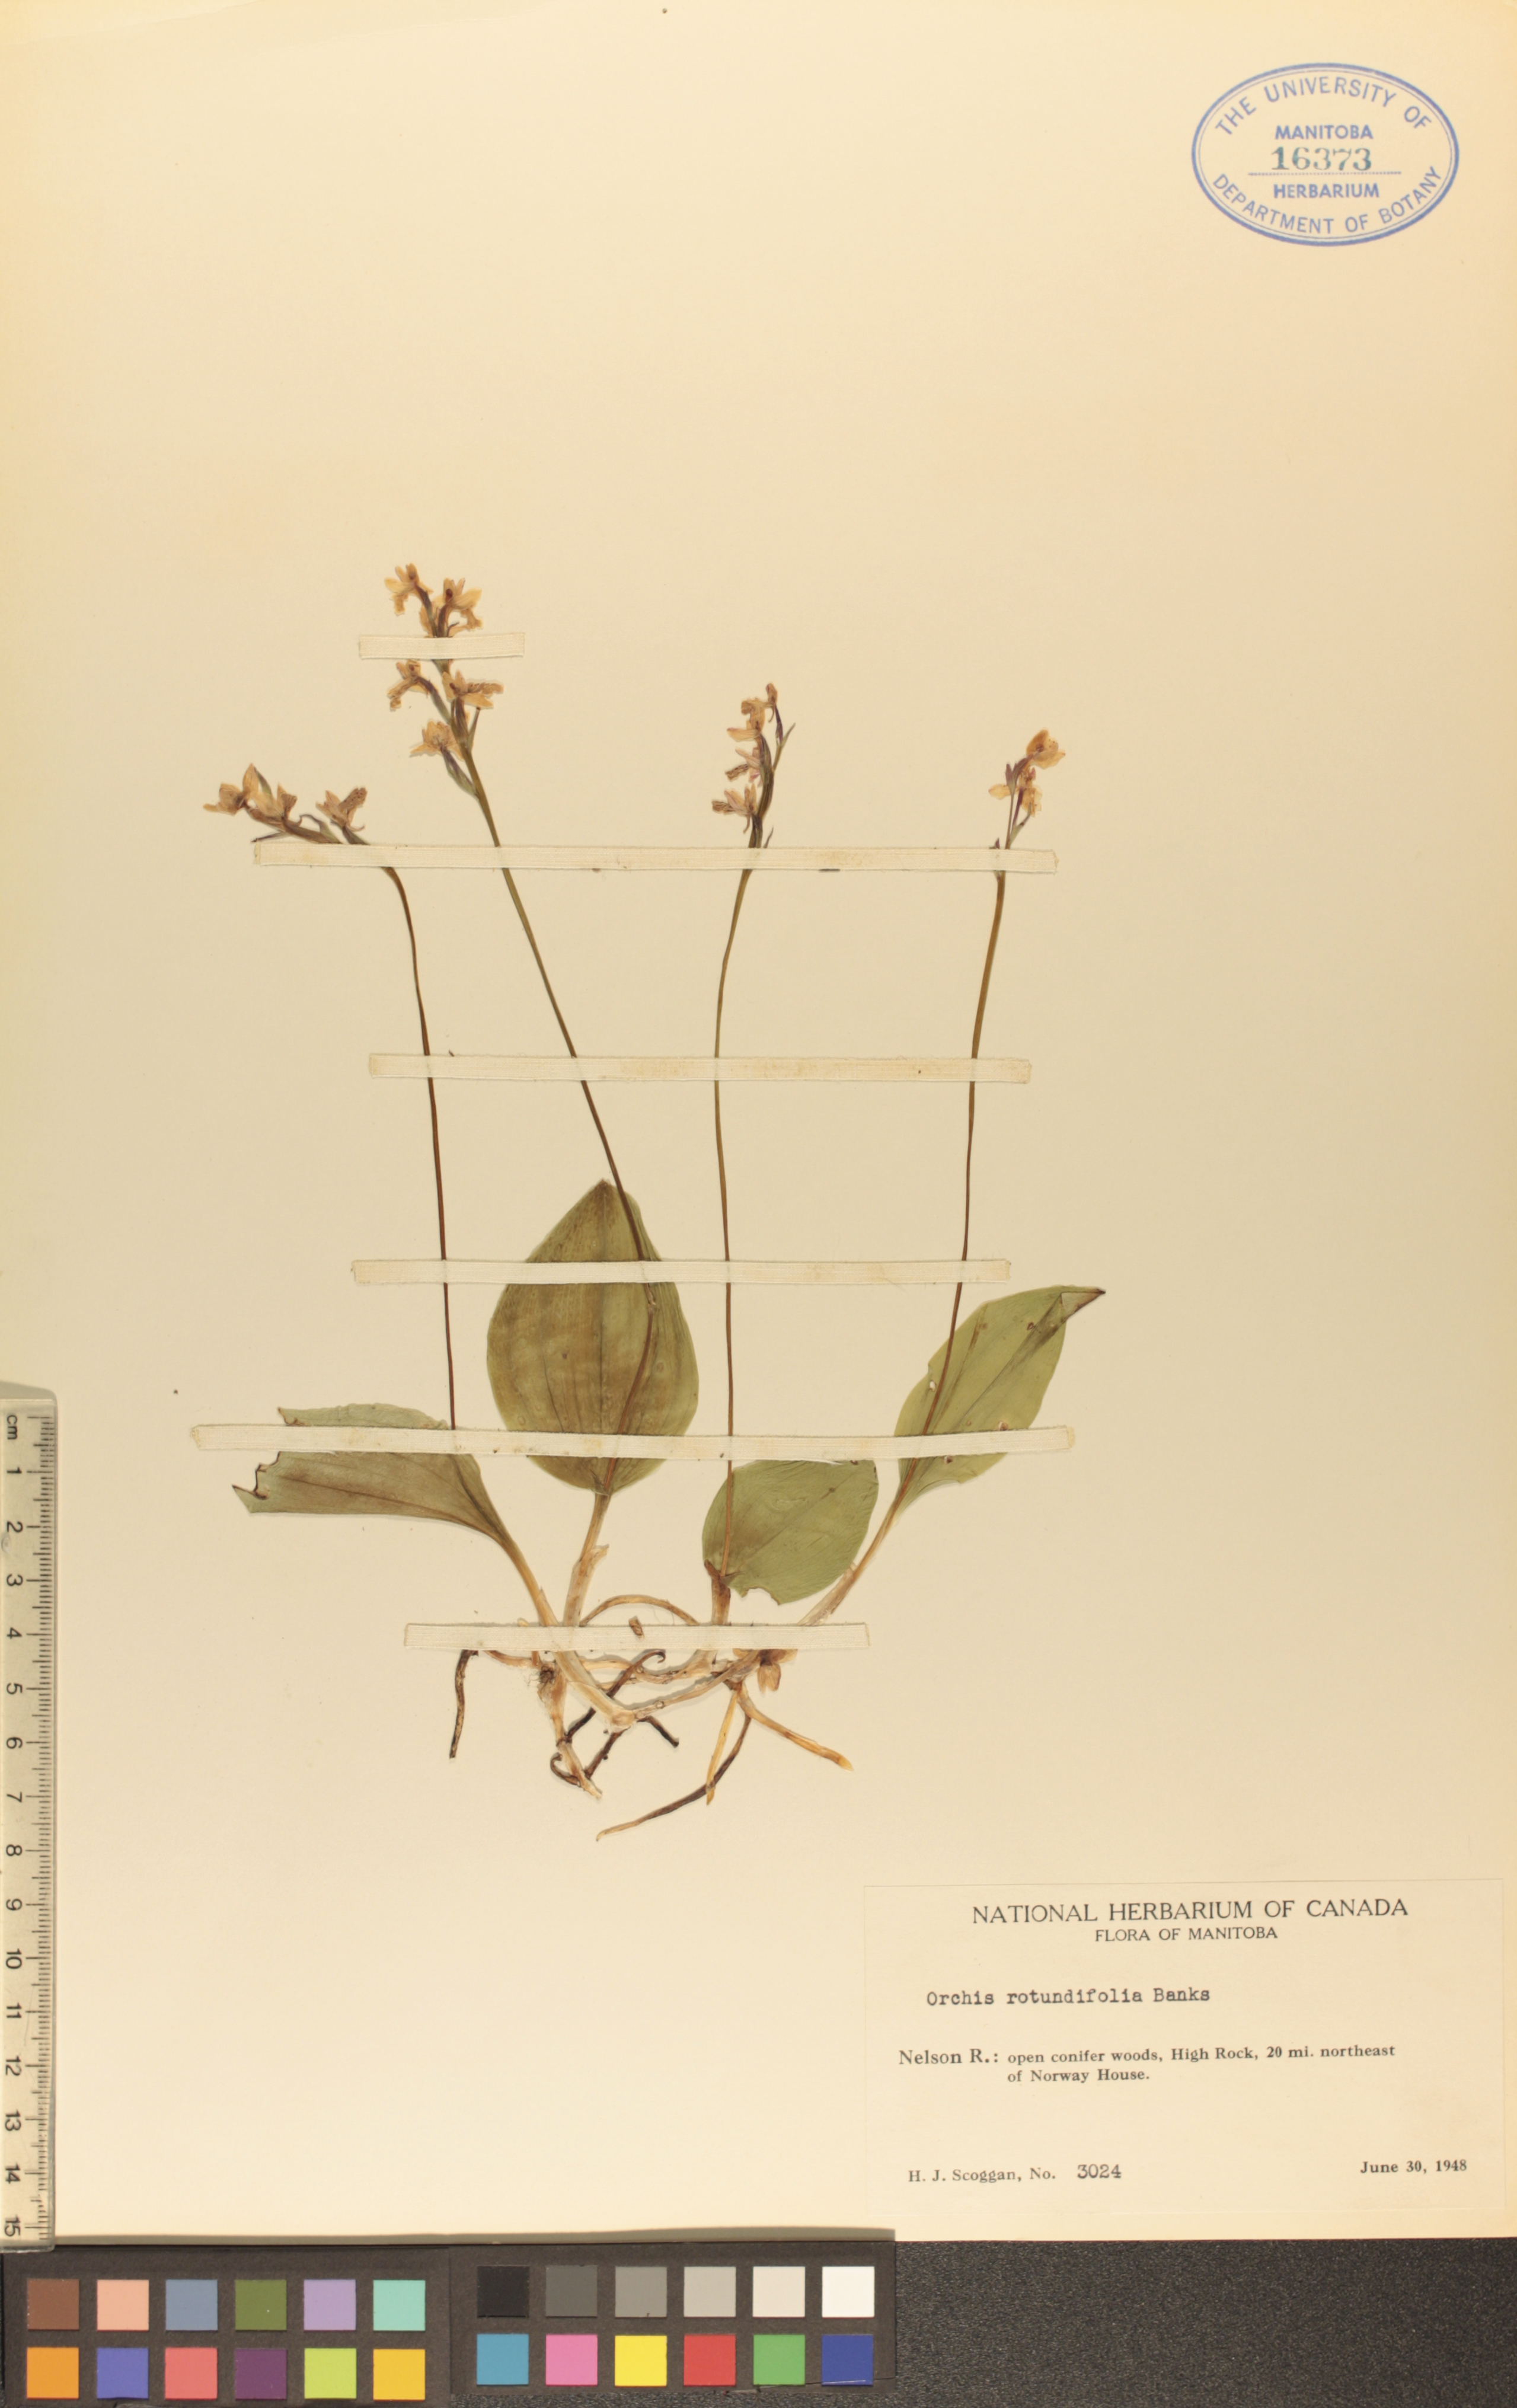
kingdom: Plantae
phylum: Tracheophyta
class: Liliopsida
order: Asparagales
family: Orchidaceae
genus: Galearis
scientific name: Galearis rotundifolia
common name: One-leaved orchis
